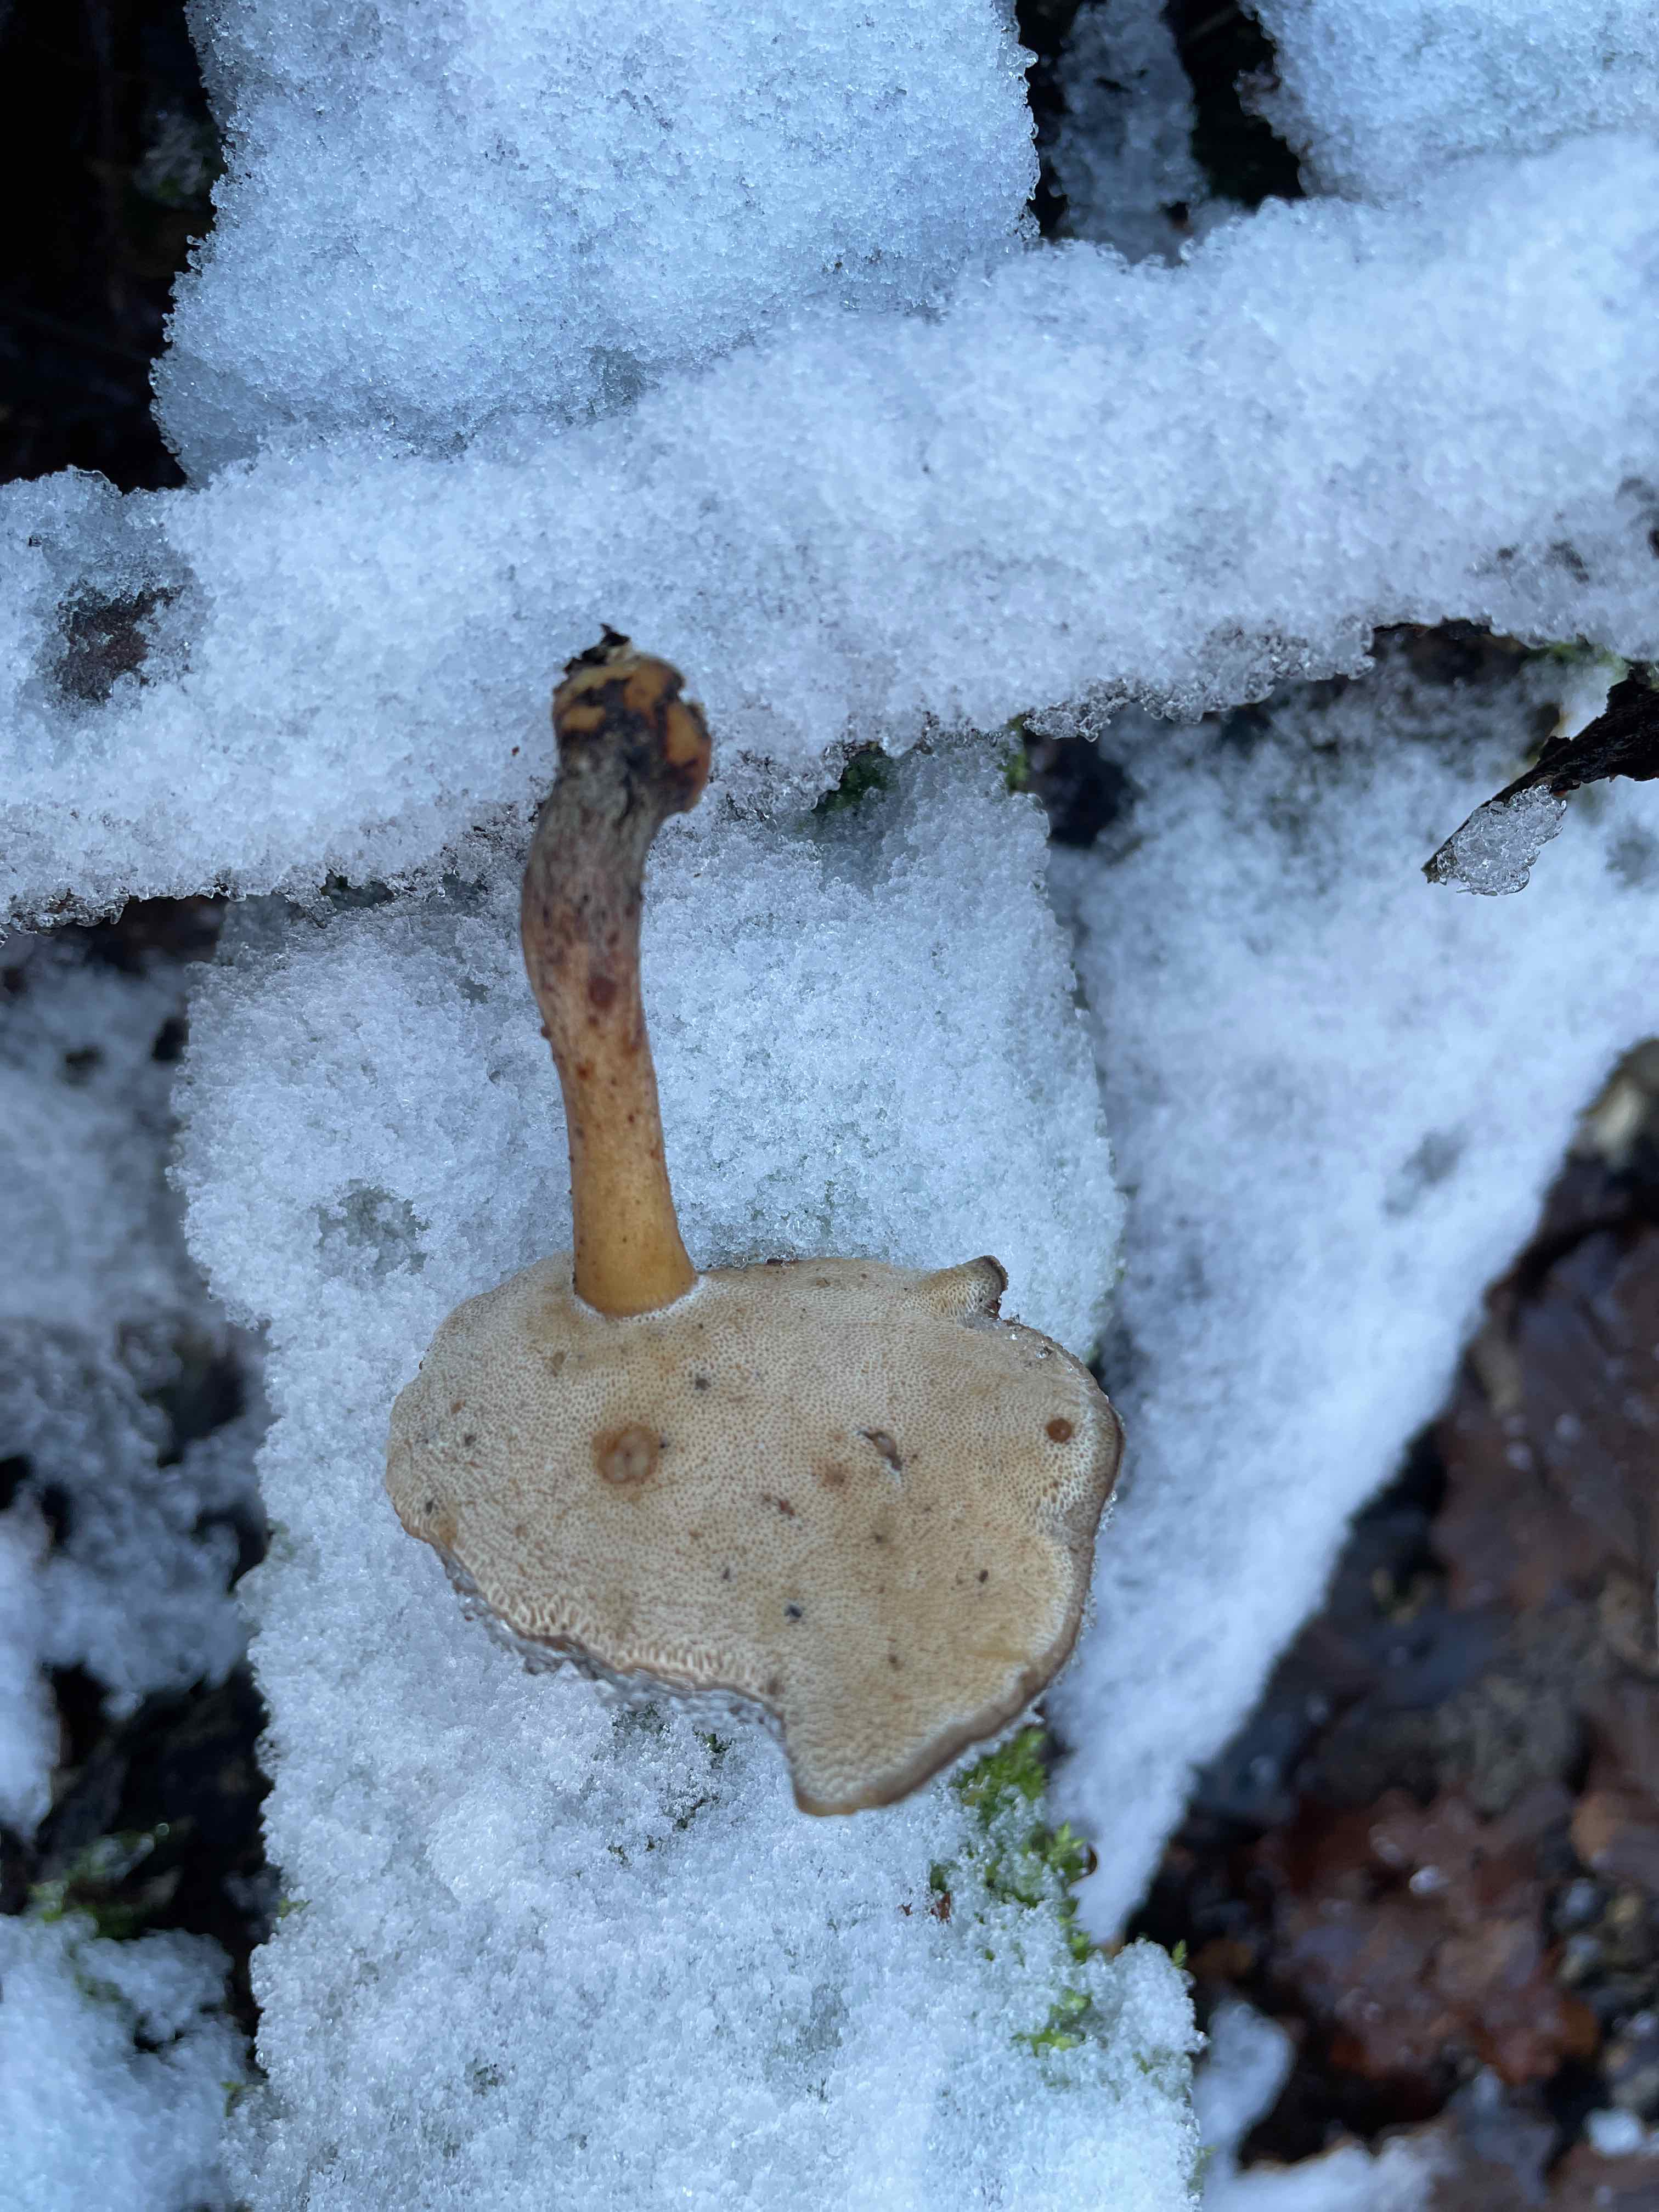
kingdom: Fungi
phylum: Basidiomycota
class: Agaricomycetes
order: Polyporales
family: Polyporaceae
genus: Lentinus
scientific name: Lentinus brumalis
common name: vinter-stilkporesvamp
